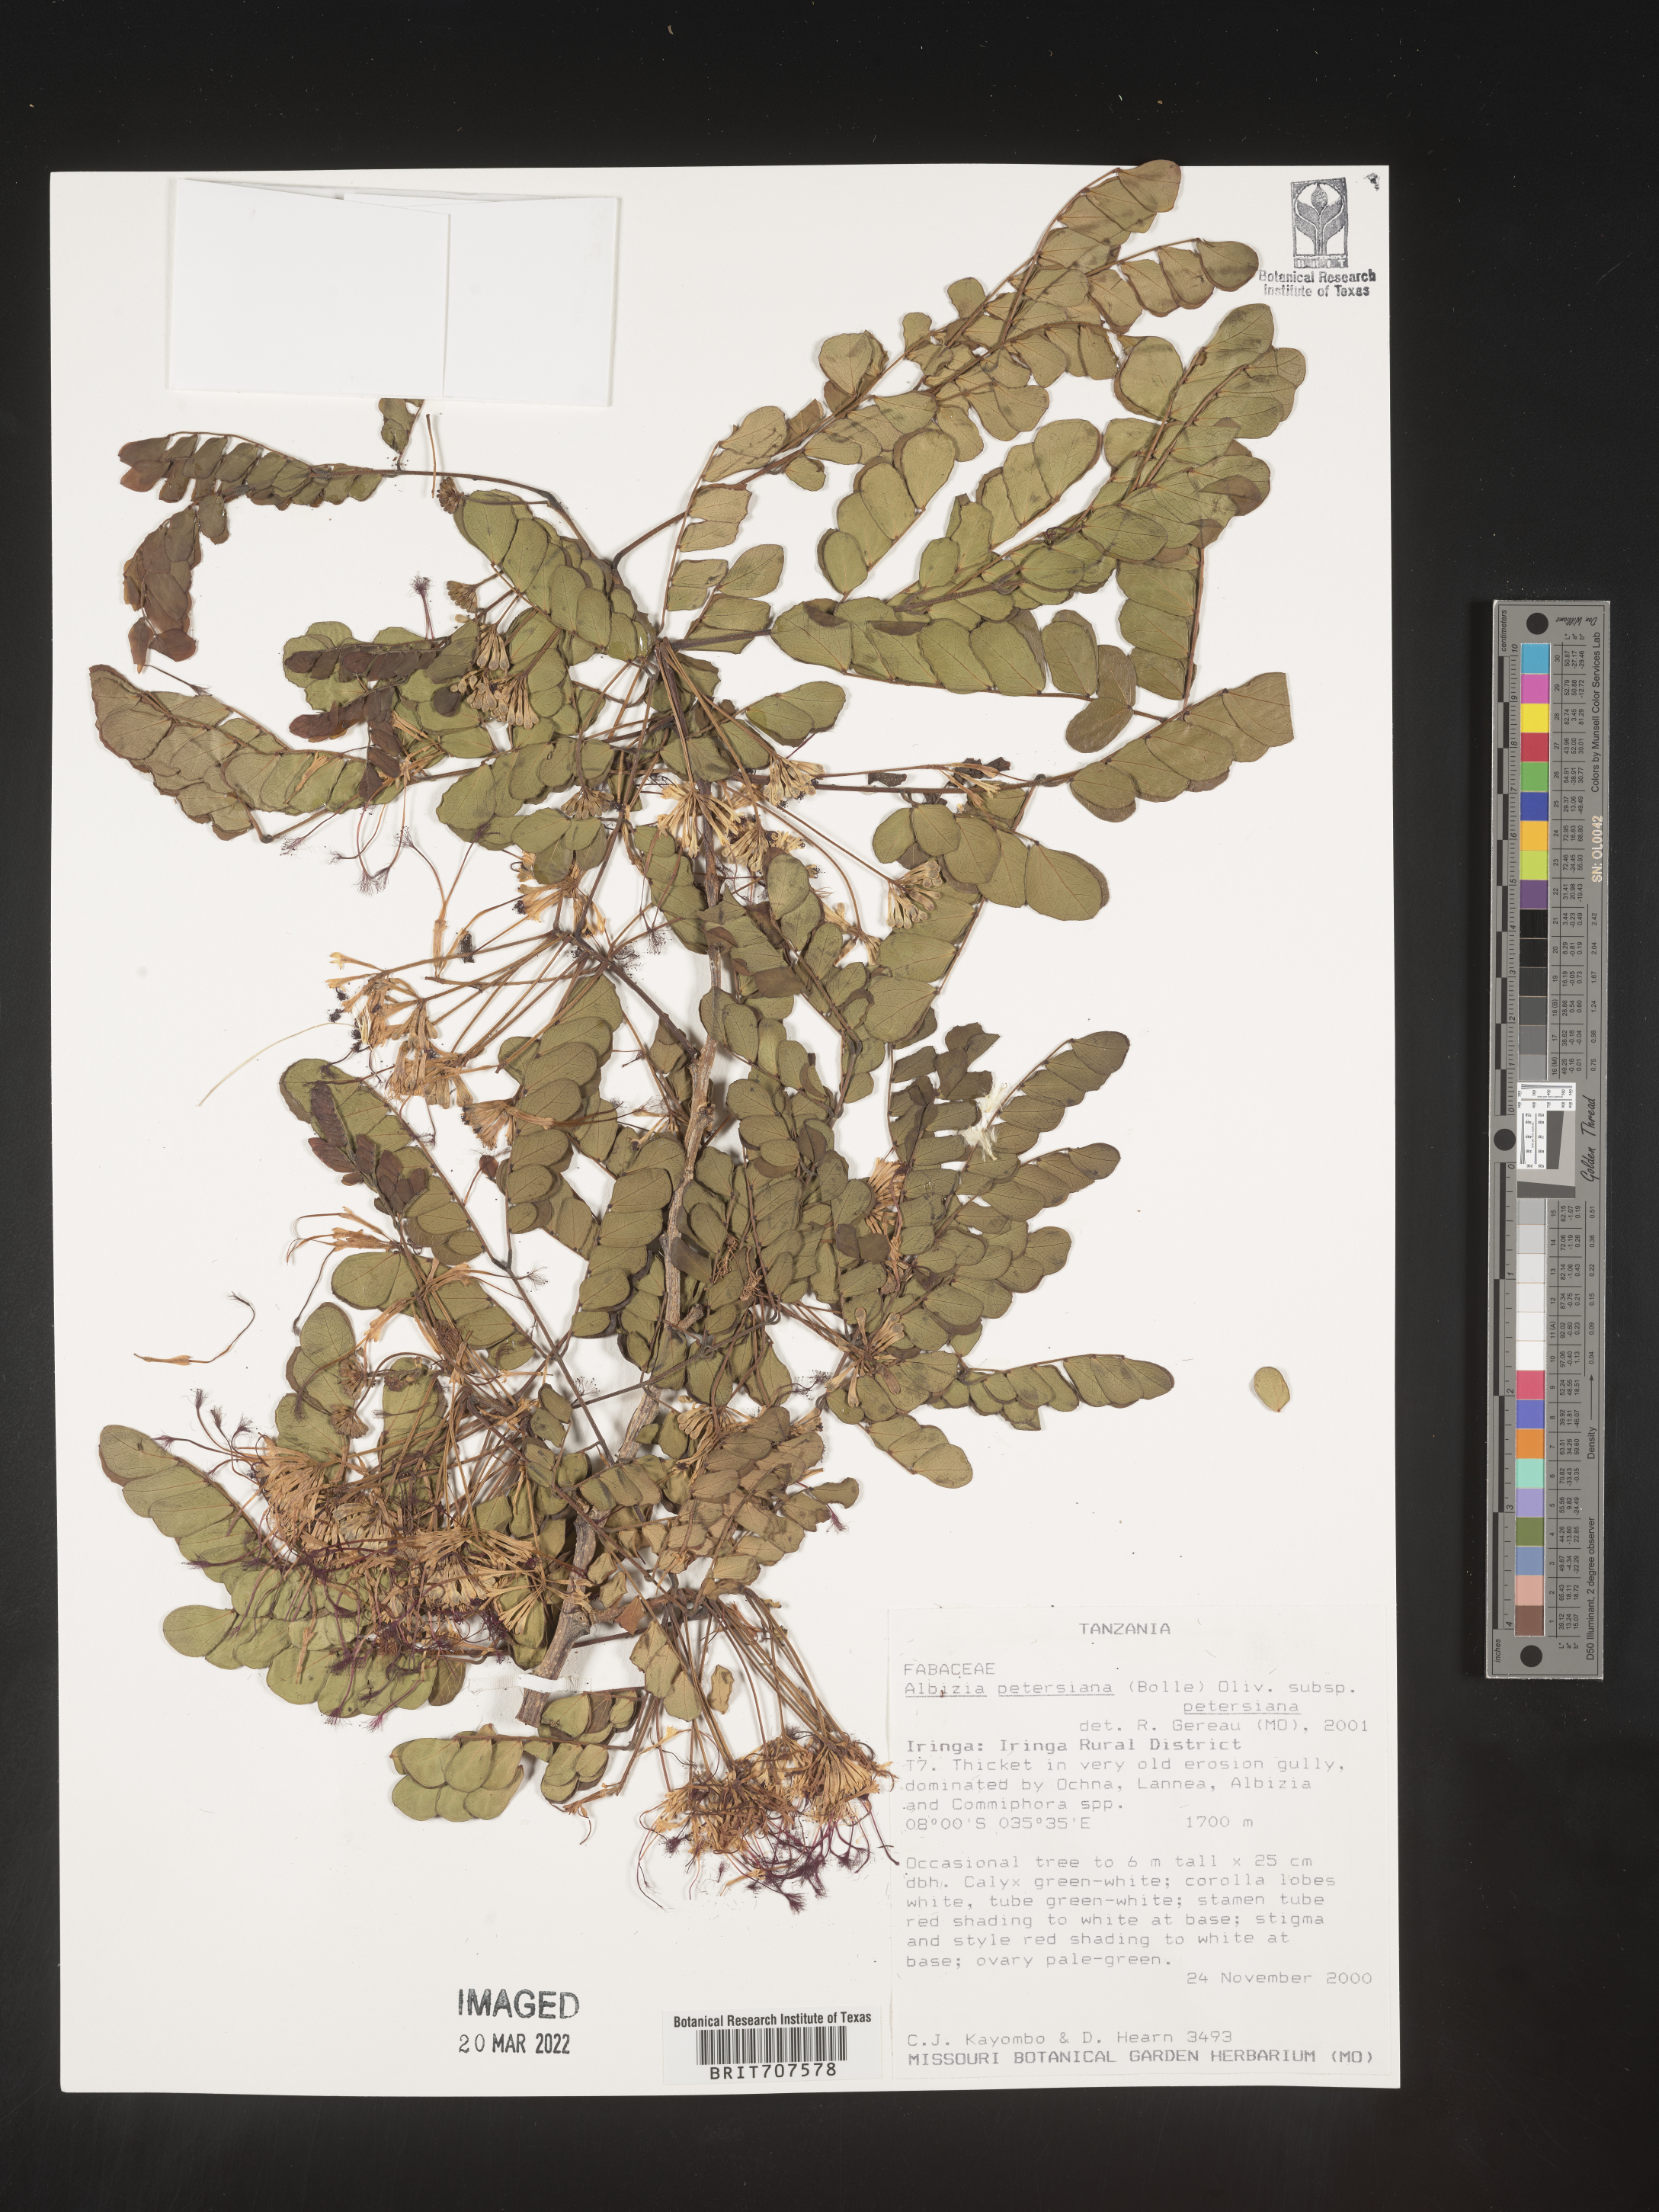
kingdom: Plantae
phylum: Tracheophyta
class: Magnoliopsida
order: Fabales
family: Fabaceae
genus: Albizia
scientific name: Albizia
